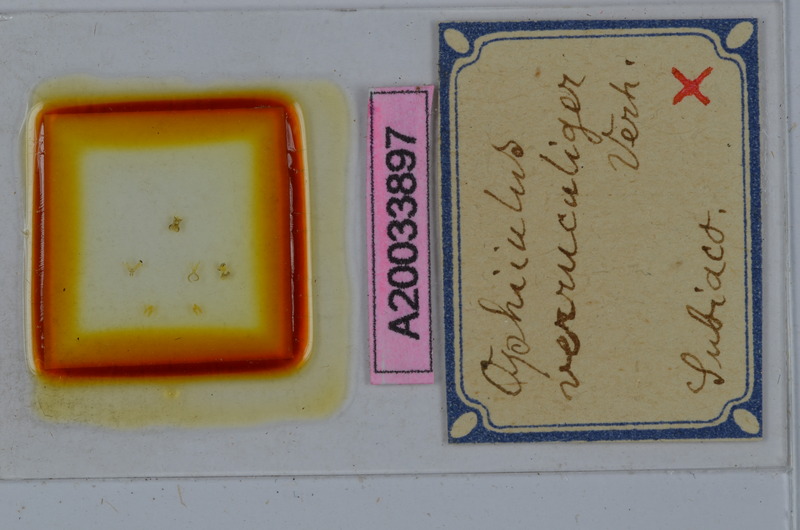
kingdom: Animalia
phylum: Arthropoda
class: Diplopoda
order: Julida
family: Julidae
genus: Ophyiulus
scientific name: Ophyiulus targionii
